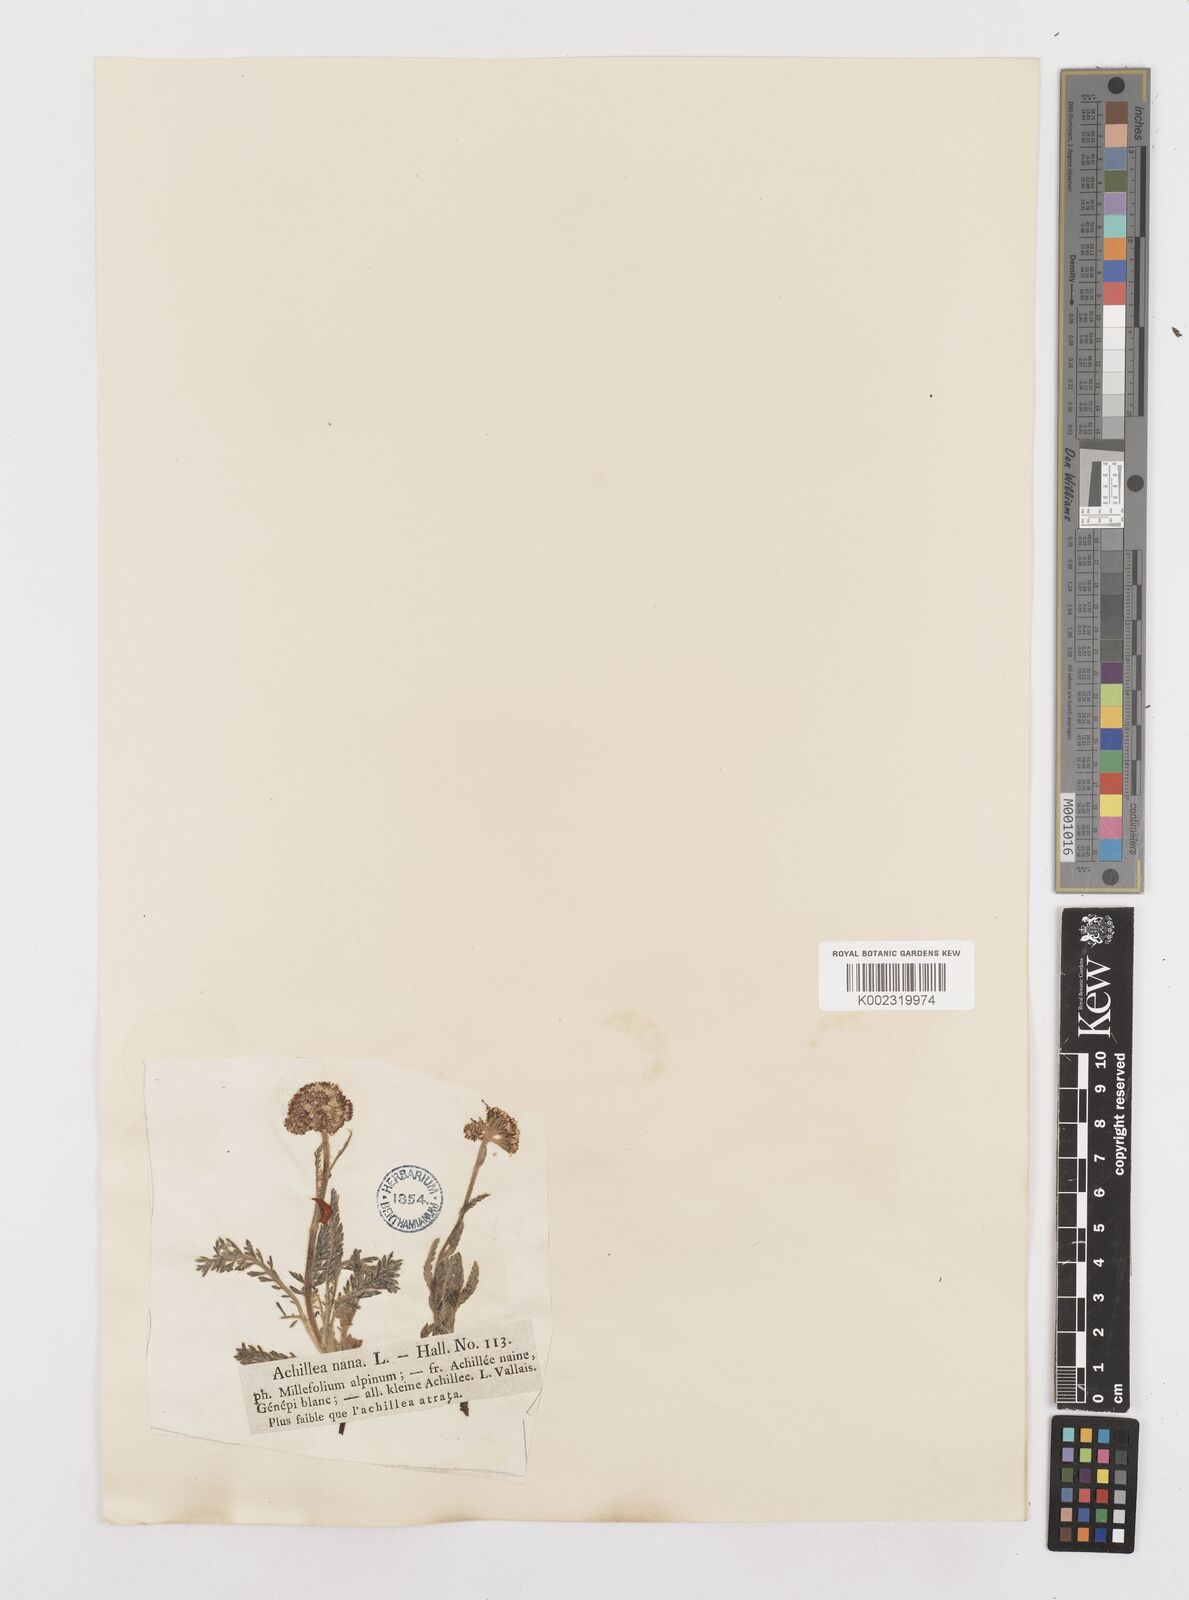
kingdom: Plantae
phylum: Tracheophyta
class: Magnoliopsida
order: Asterales
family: Asteraceae
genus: Achillea
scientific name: Achillea erba-rotta
